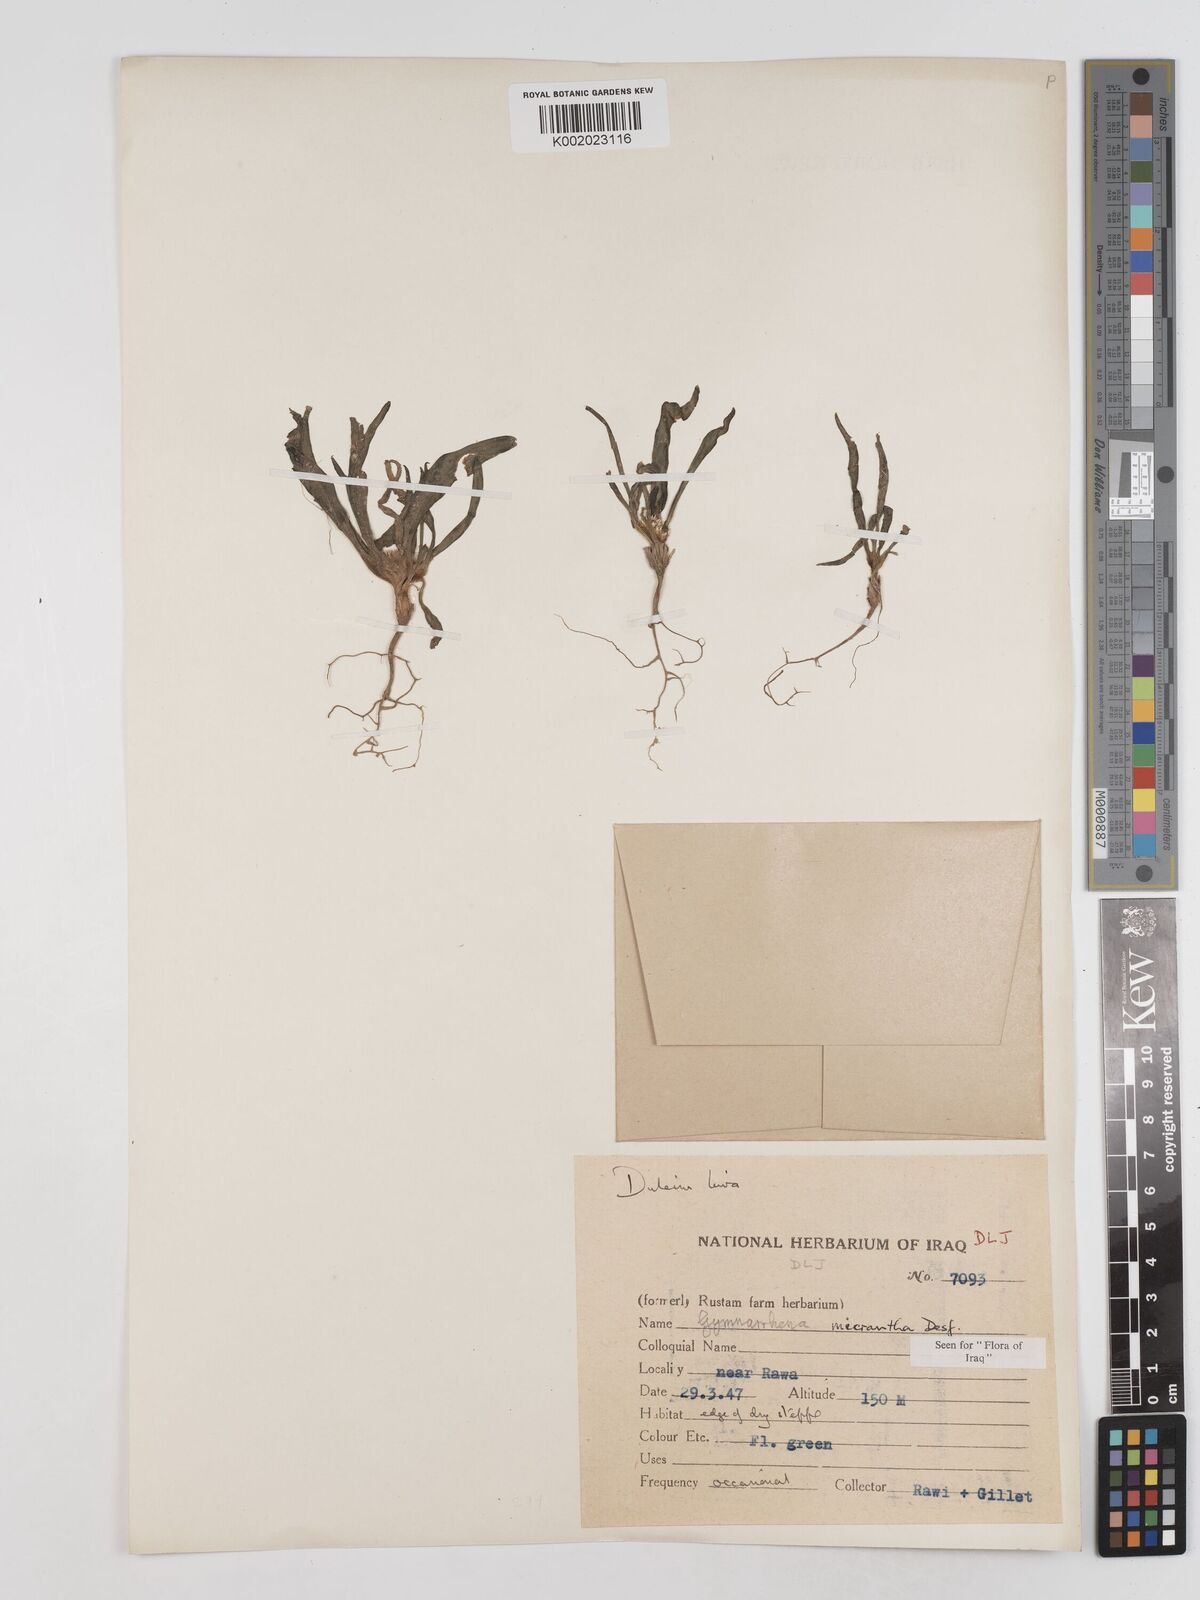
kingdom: Plantae
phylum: Tracheophyta
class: Magnoliopsida
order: Asterales
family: Asteraceae
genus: Gymnarrhena
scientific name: Gymnarrhena micrantha
